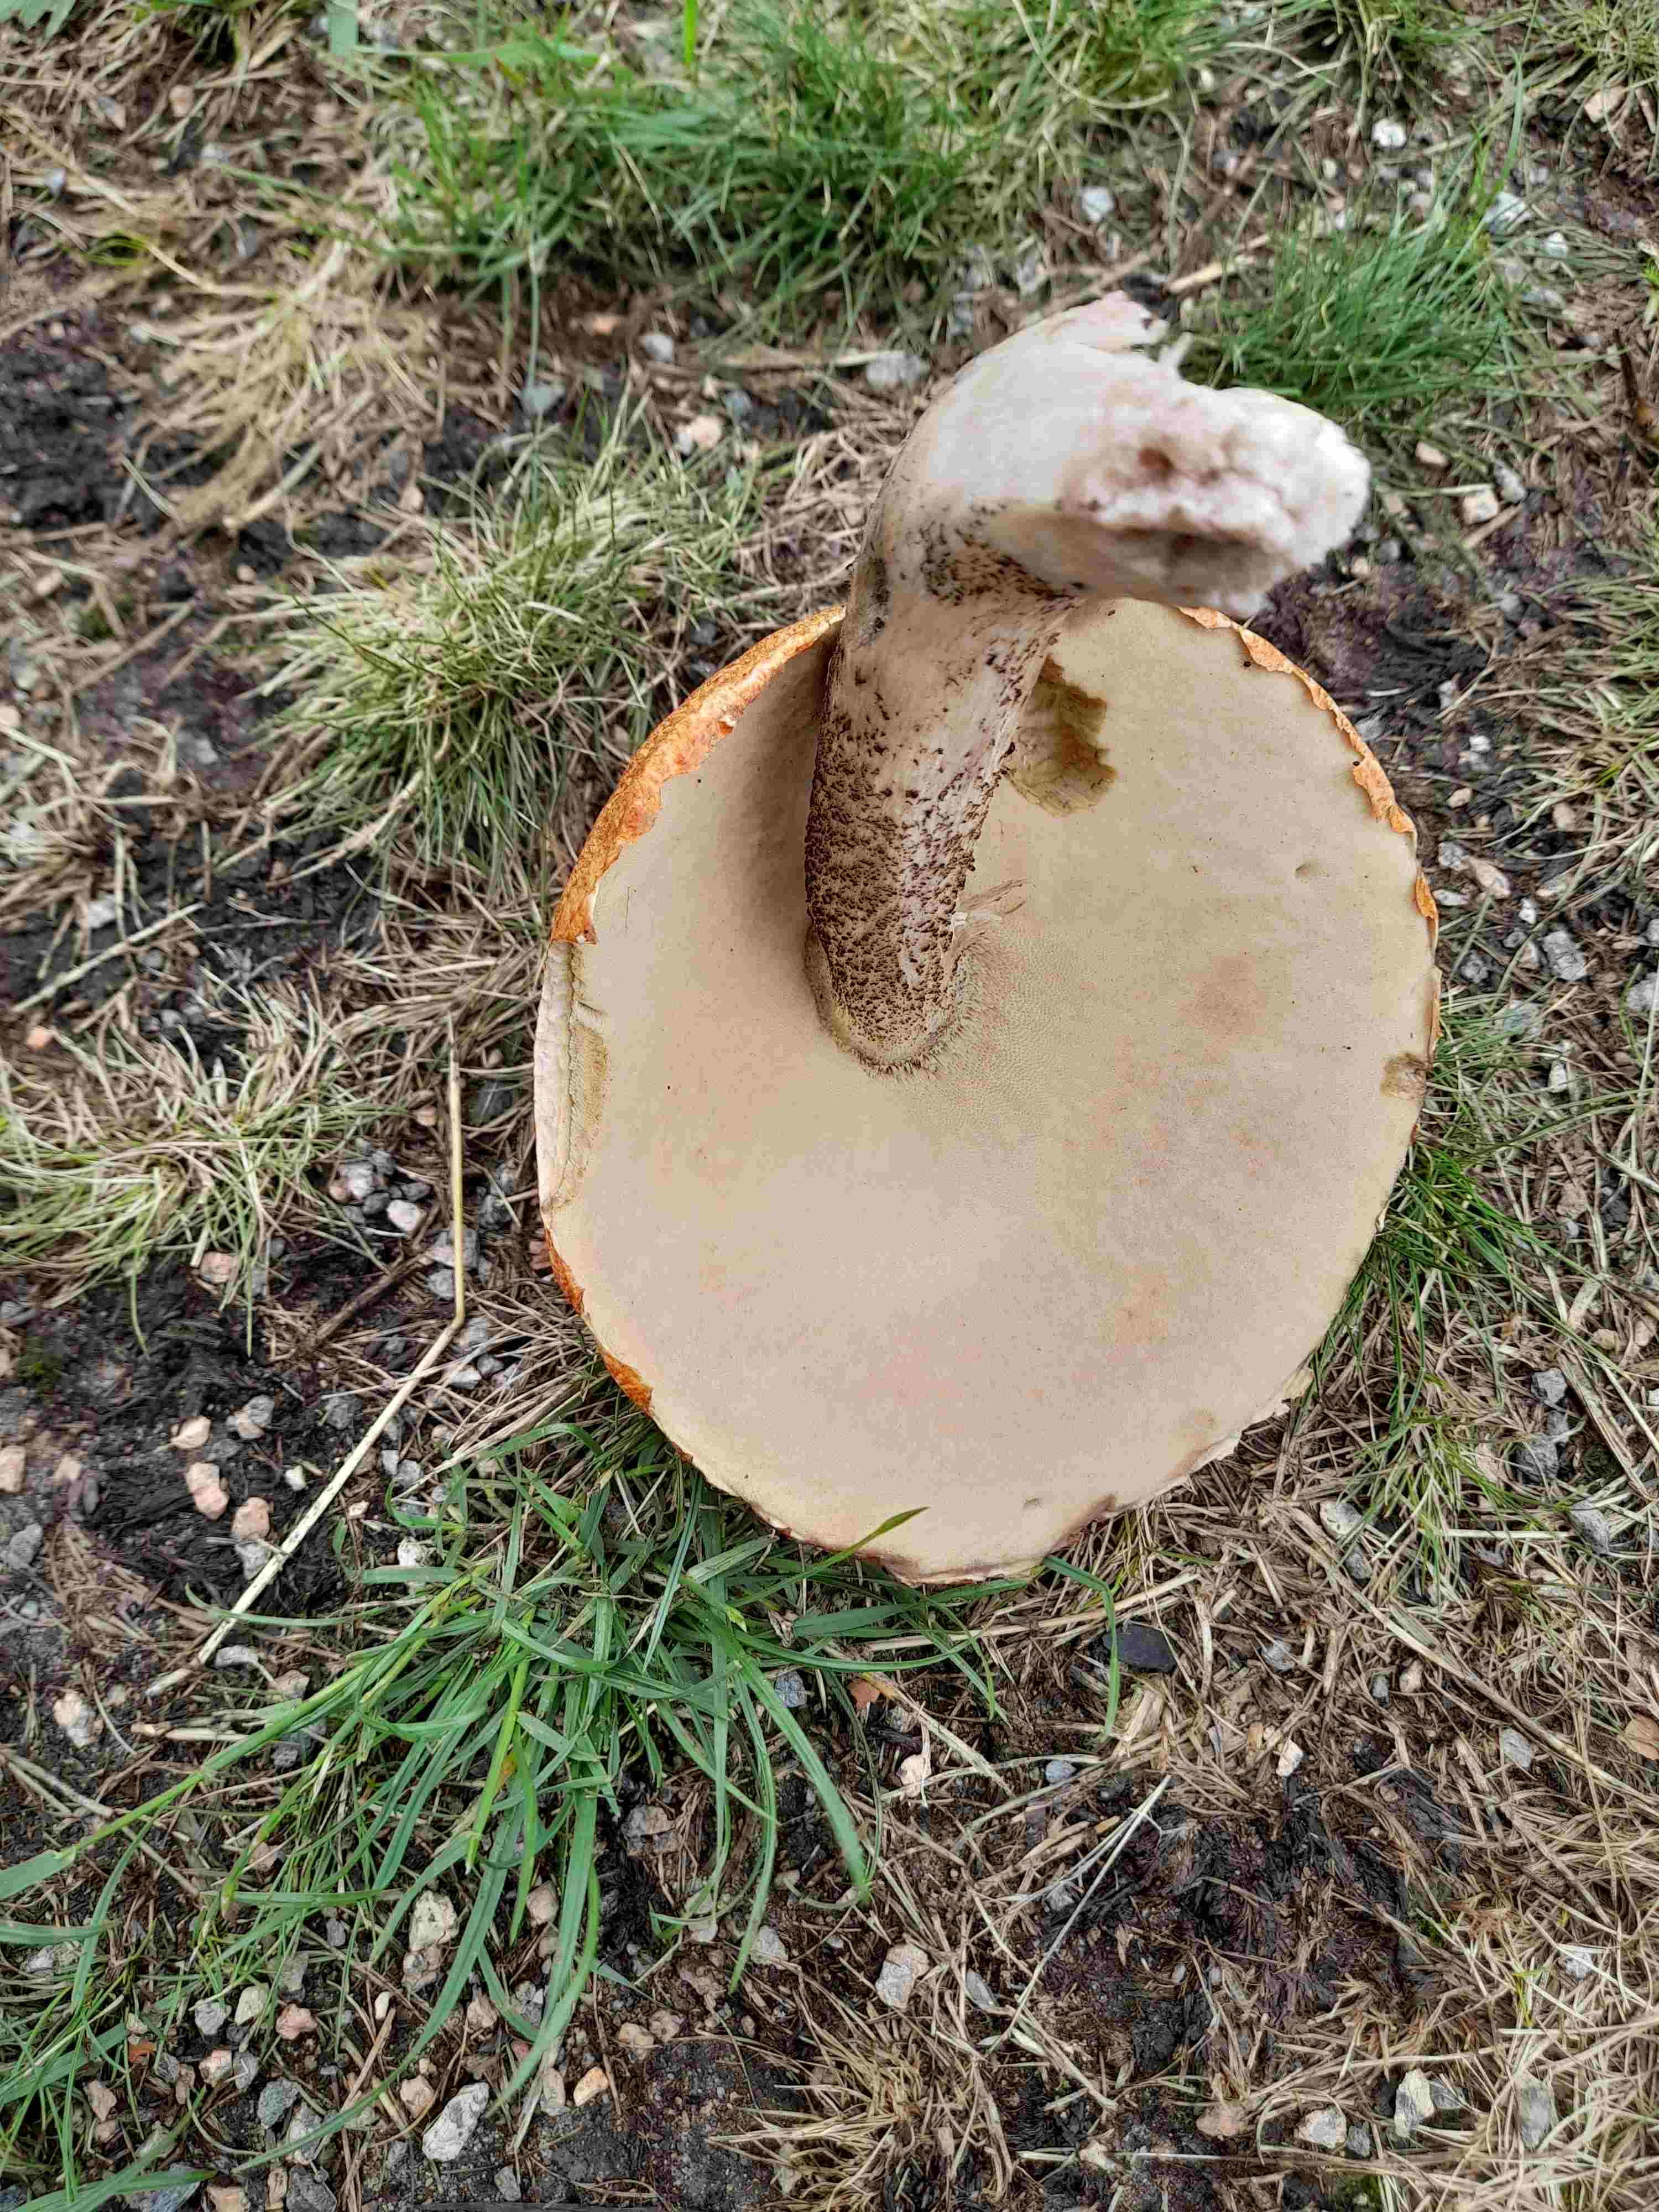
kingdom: Fungi
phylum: Basidiomycota
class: Agaricomycetes
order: Boletales
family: Boletaceae
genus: Leccinum
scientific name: Leccinum
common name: skælrørhat
